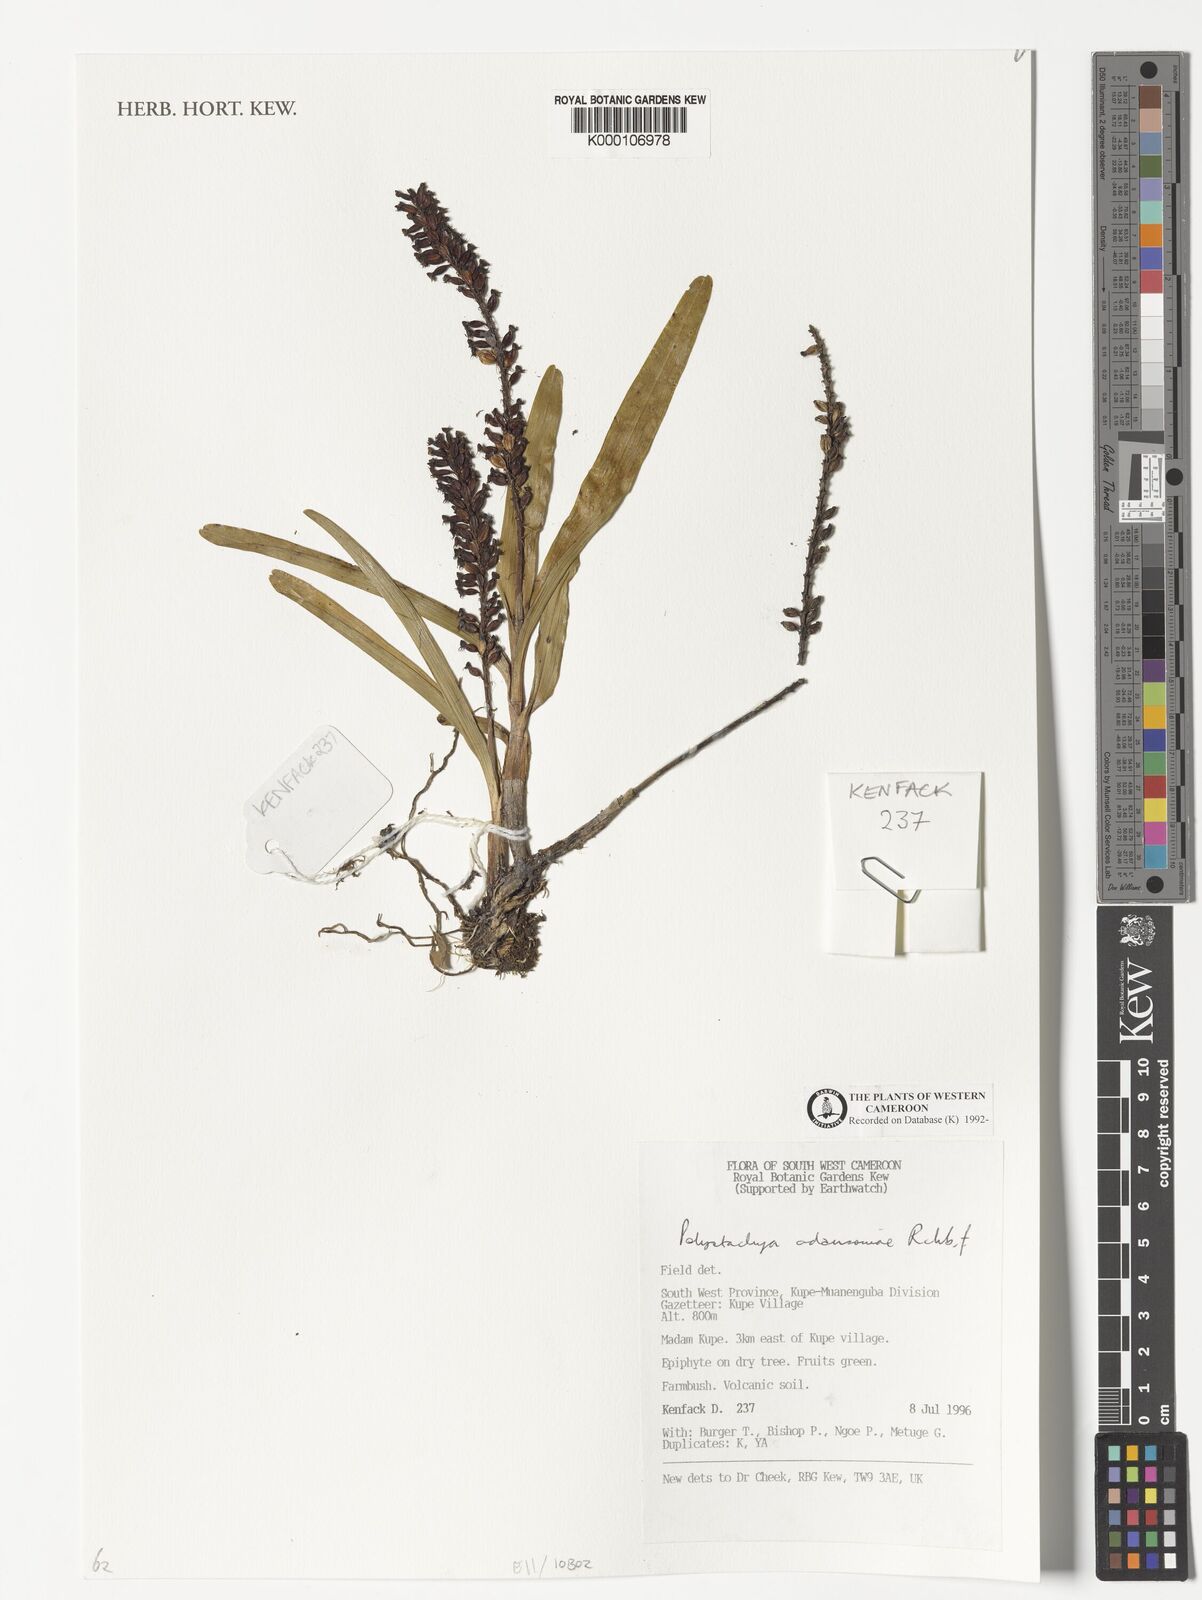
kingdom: Plantae
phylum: Tracheophyta
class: Liliopsida
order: Asparagales
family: Orchidaceae
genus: Polystachya
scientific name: Polystachya adansoniae
